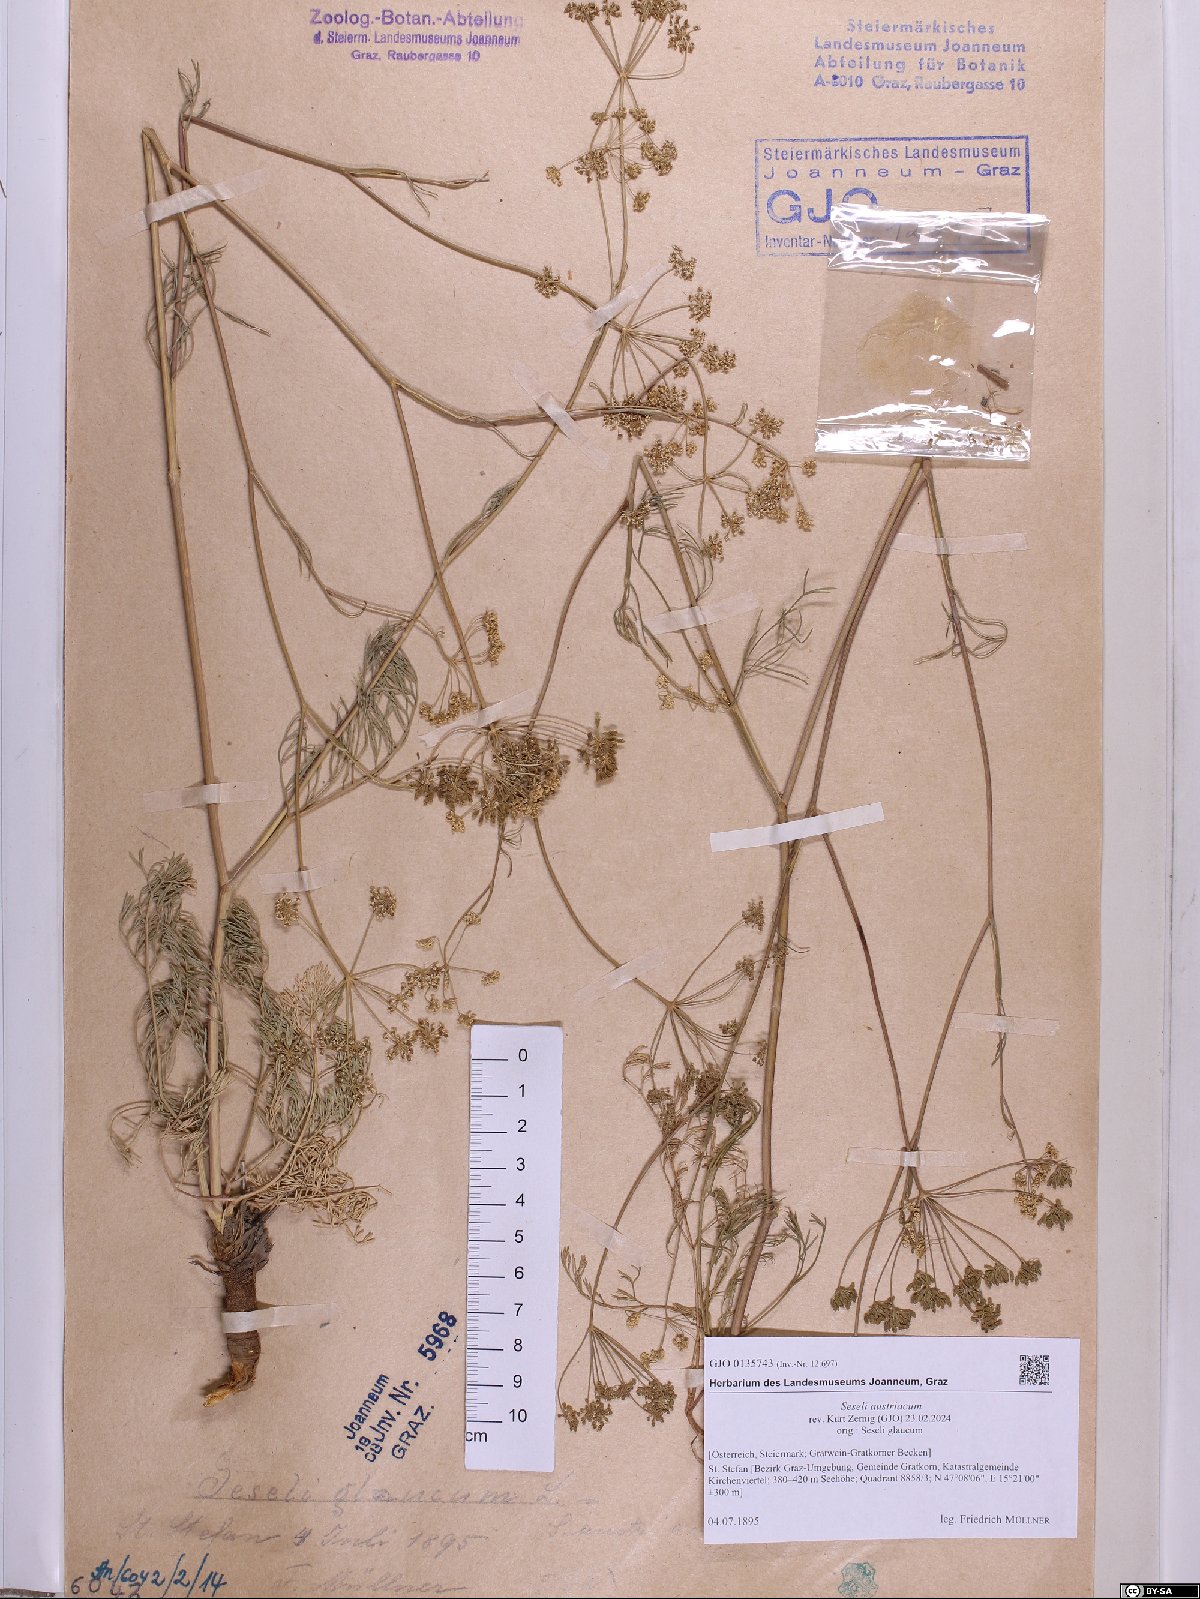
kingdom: Plantae
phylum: Tracheophyta
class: Magnoliopsida
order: Apiales
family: Apiaceae
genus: Seseli
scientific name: Seseli austriacum
